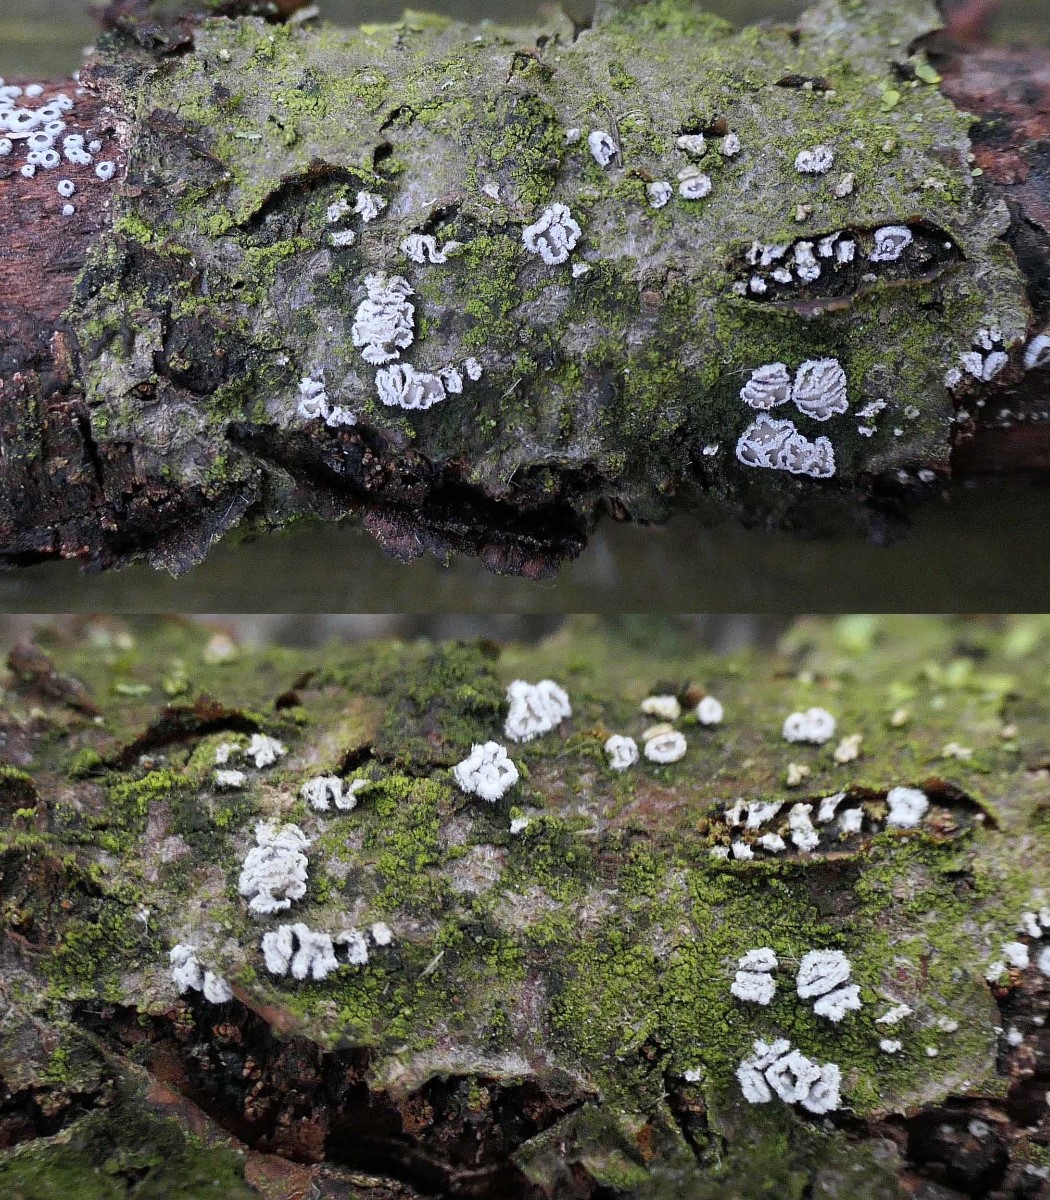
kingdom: Fungi
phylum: Basidiomycota
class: Agaricomycetes
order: Agaricales
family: Niaceae
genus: Lachnella
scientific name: Lachnella alboviolascens
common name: grå frynserede
